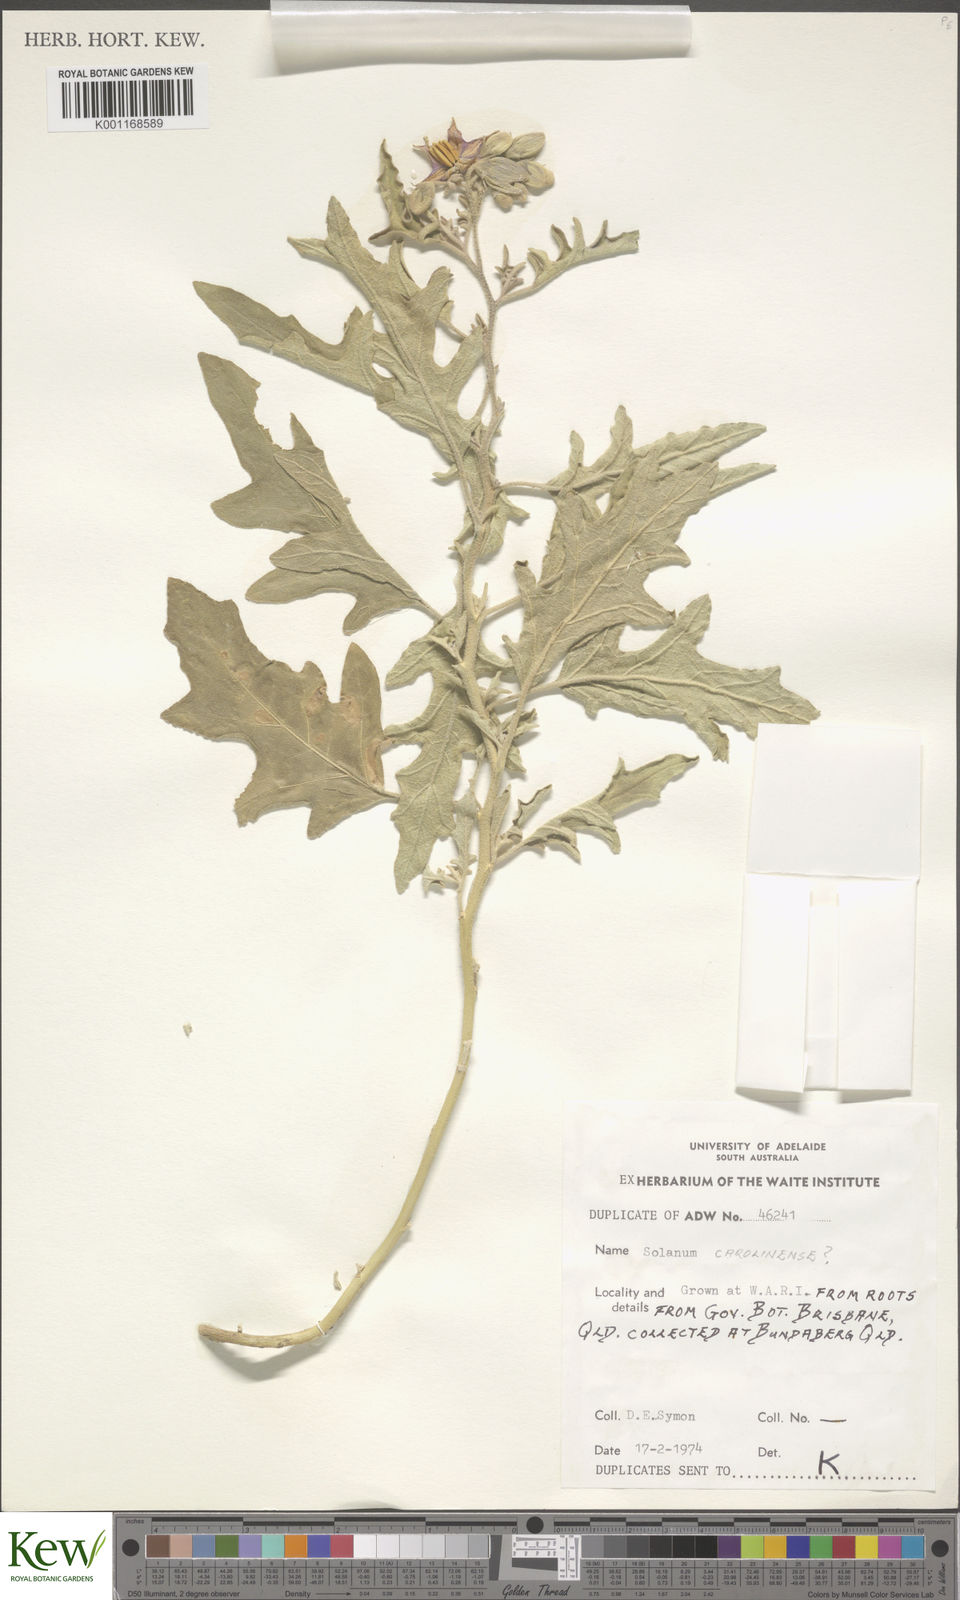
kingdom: Plantae
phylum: Tracheophyta
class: Magnoliopsida
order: Solanales
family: Solanaceae
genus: Solanum
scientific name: Solanum
